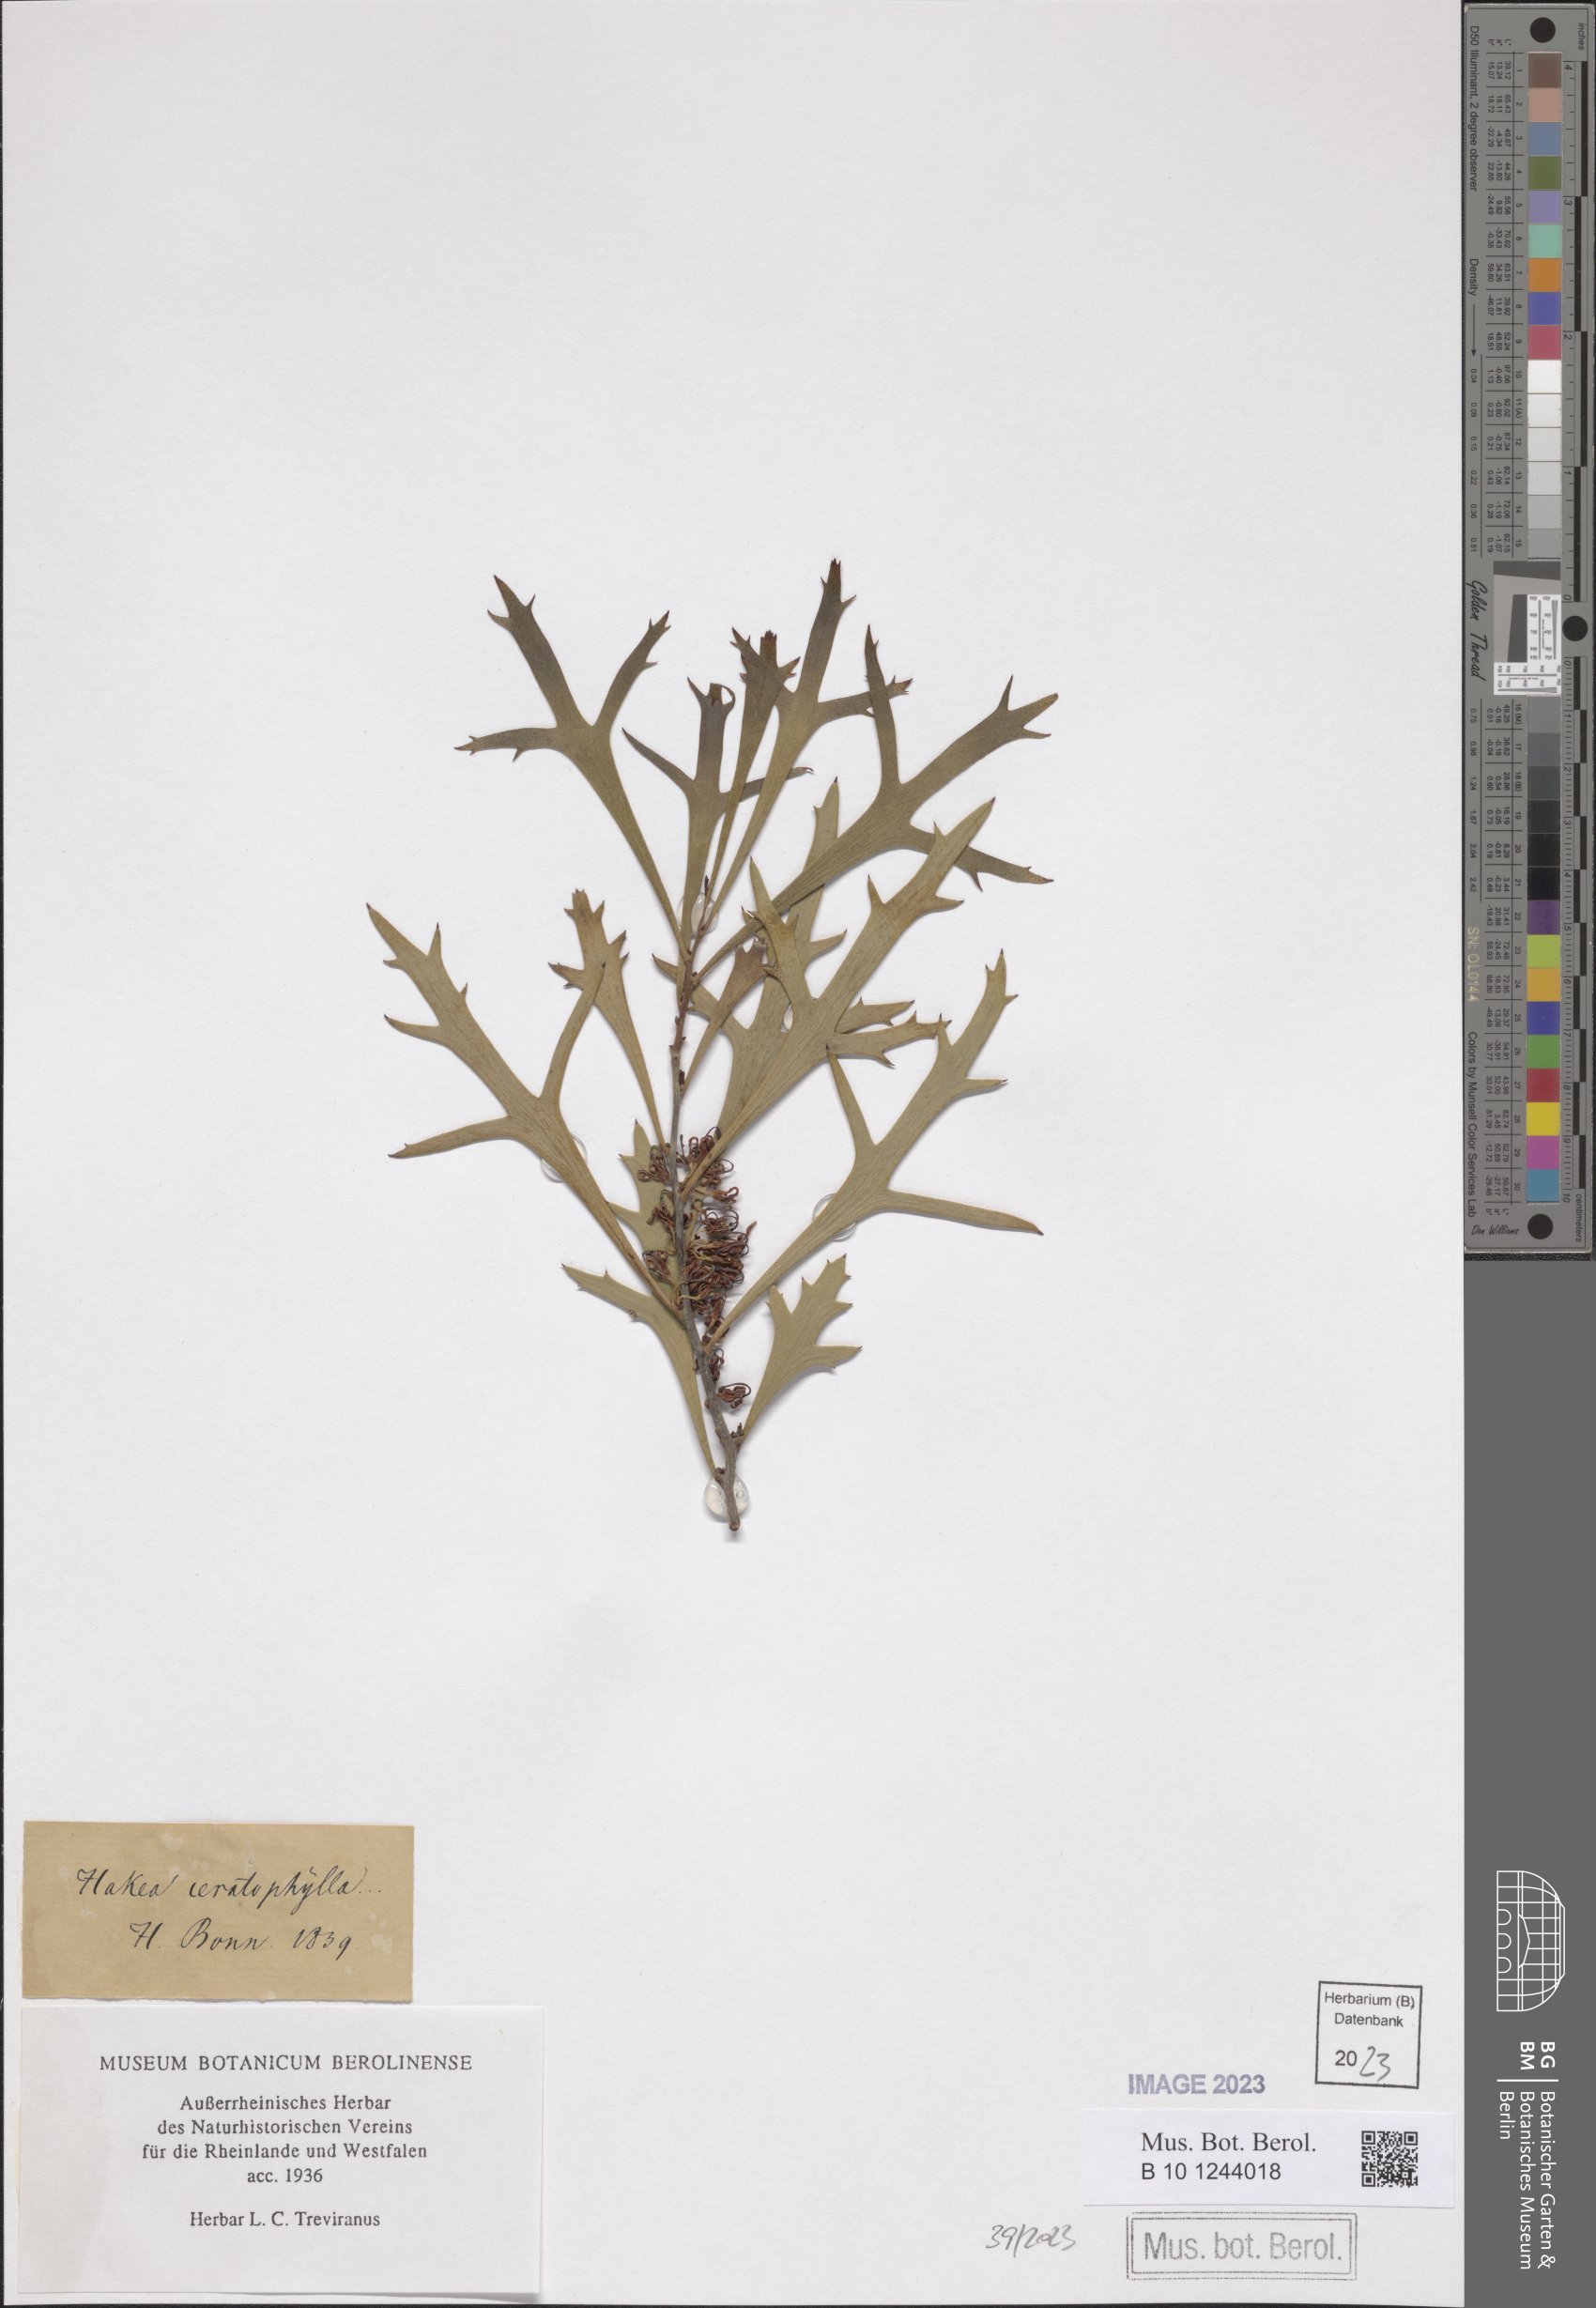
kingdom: Plantae
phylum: Tracheophyta
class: Magnoliopsida
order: Proteales
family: Proteaceae
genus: Hakea
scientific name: Hakea ceratophylla
